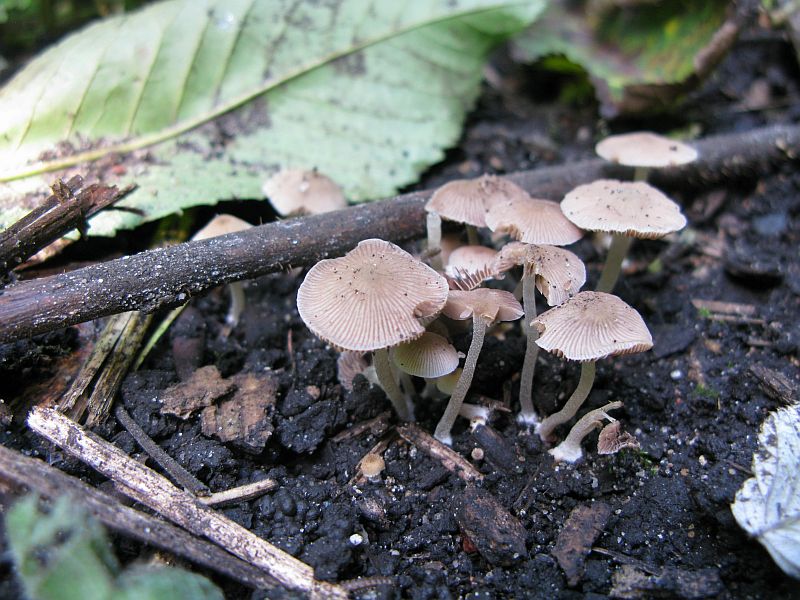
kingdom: Fungi
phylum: Basidiomycota
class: Agaricomycetes
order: Agaricales
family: Psathyrellaceae
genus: Psathyrella
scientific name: Psathyrella pygmaea
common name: dværg-mørkhat
